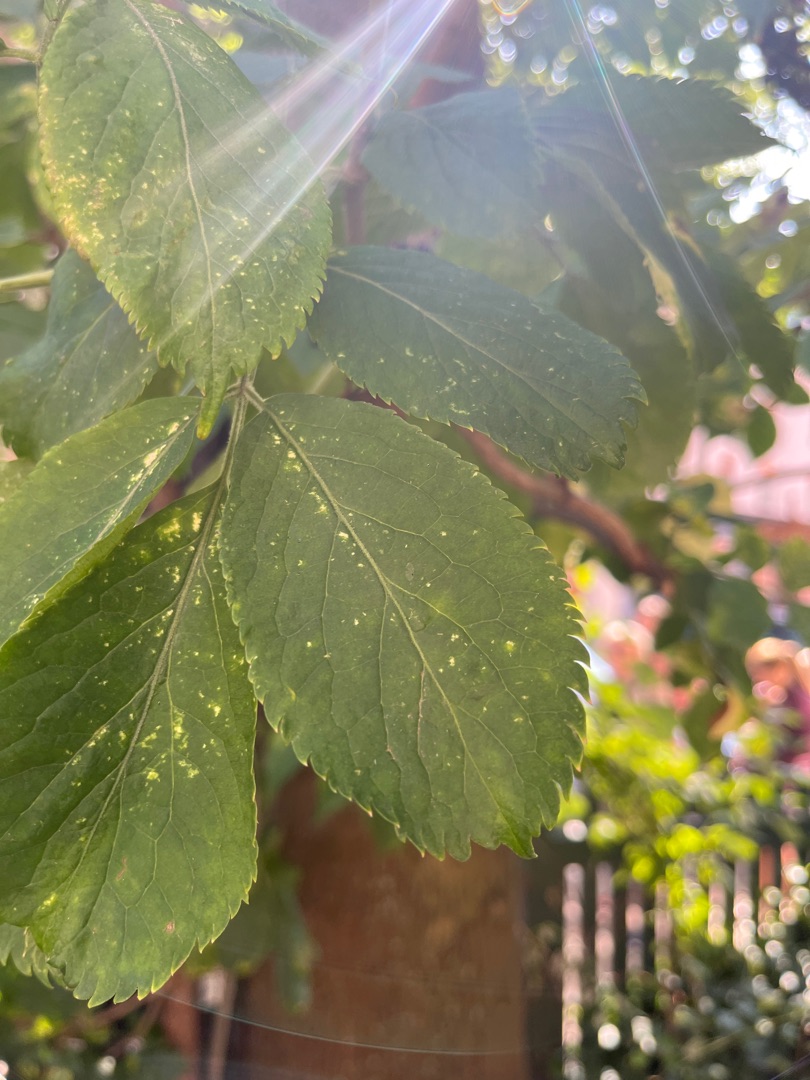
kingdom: Plantae
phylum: Tracheophyta
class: Magnoliopsida
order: Dipsacales
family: Viburnaceae
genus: Sambucus
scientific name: Sambucus nigra
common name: Almindelig hyld
